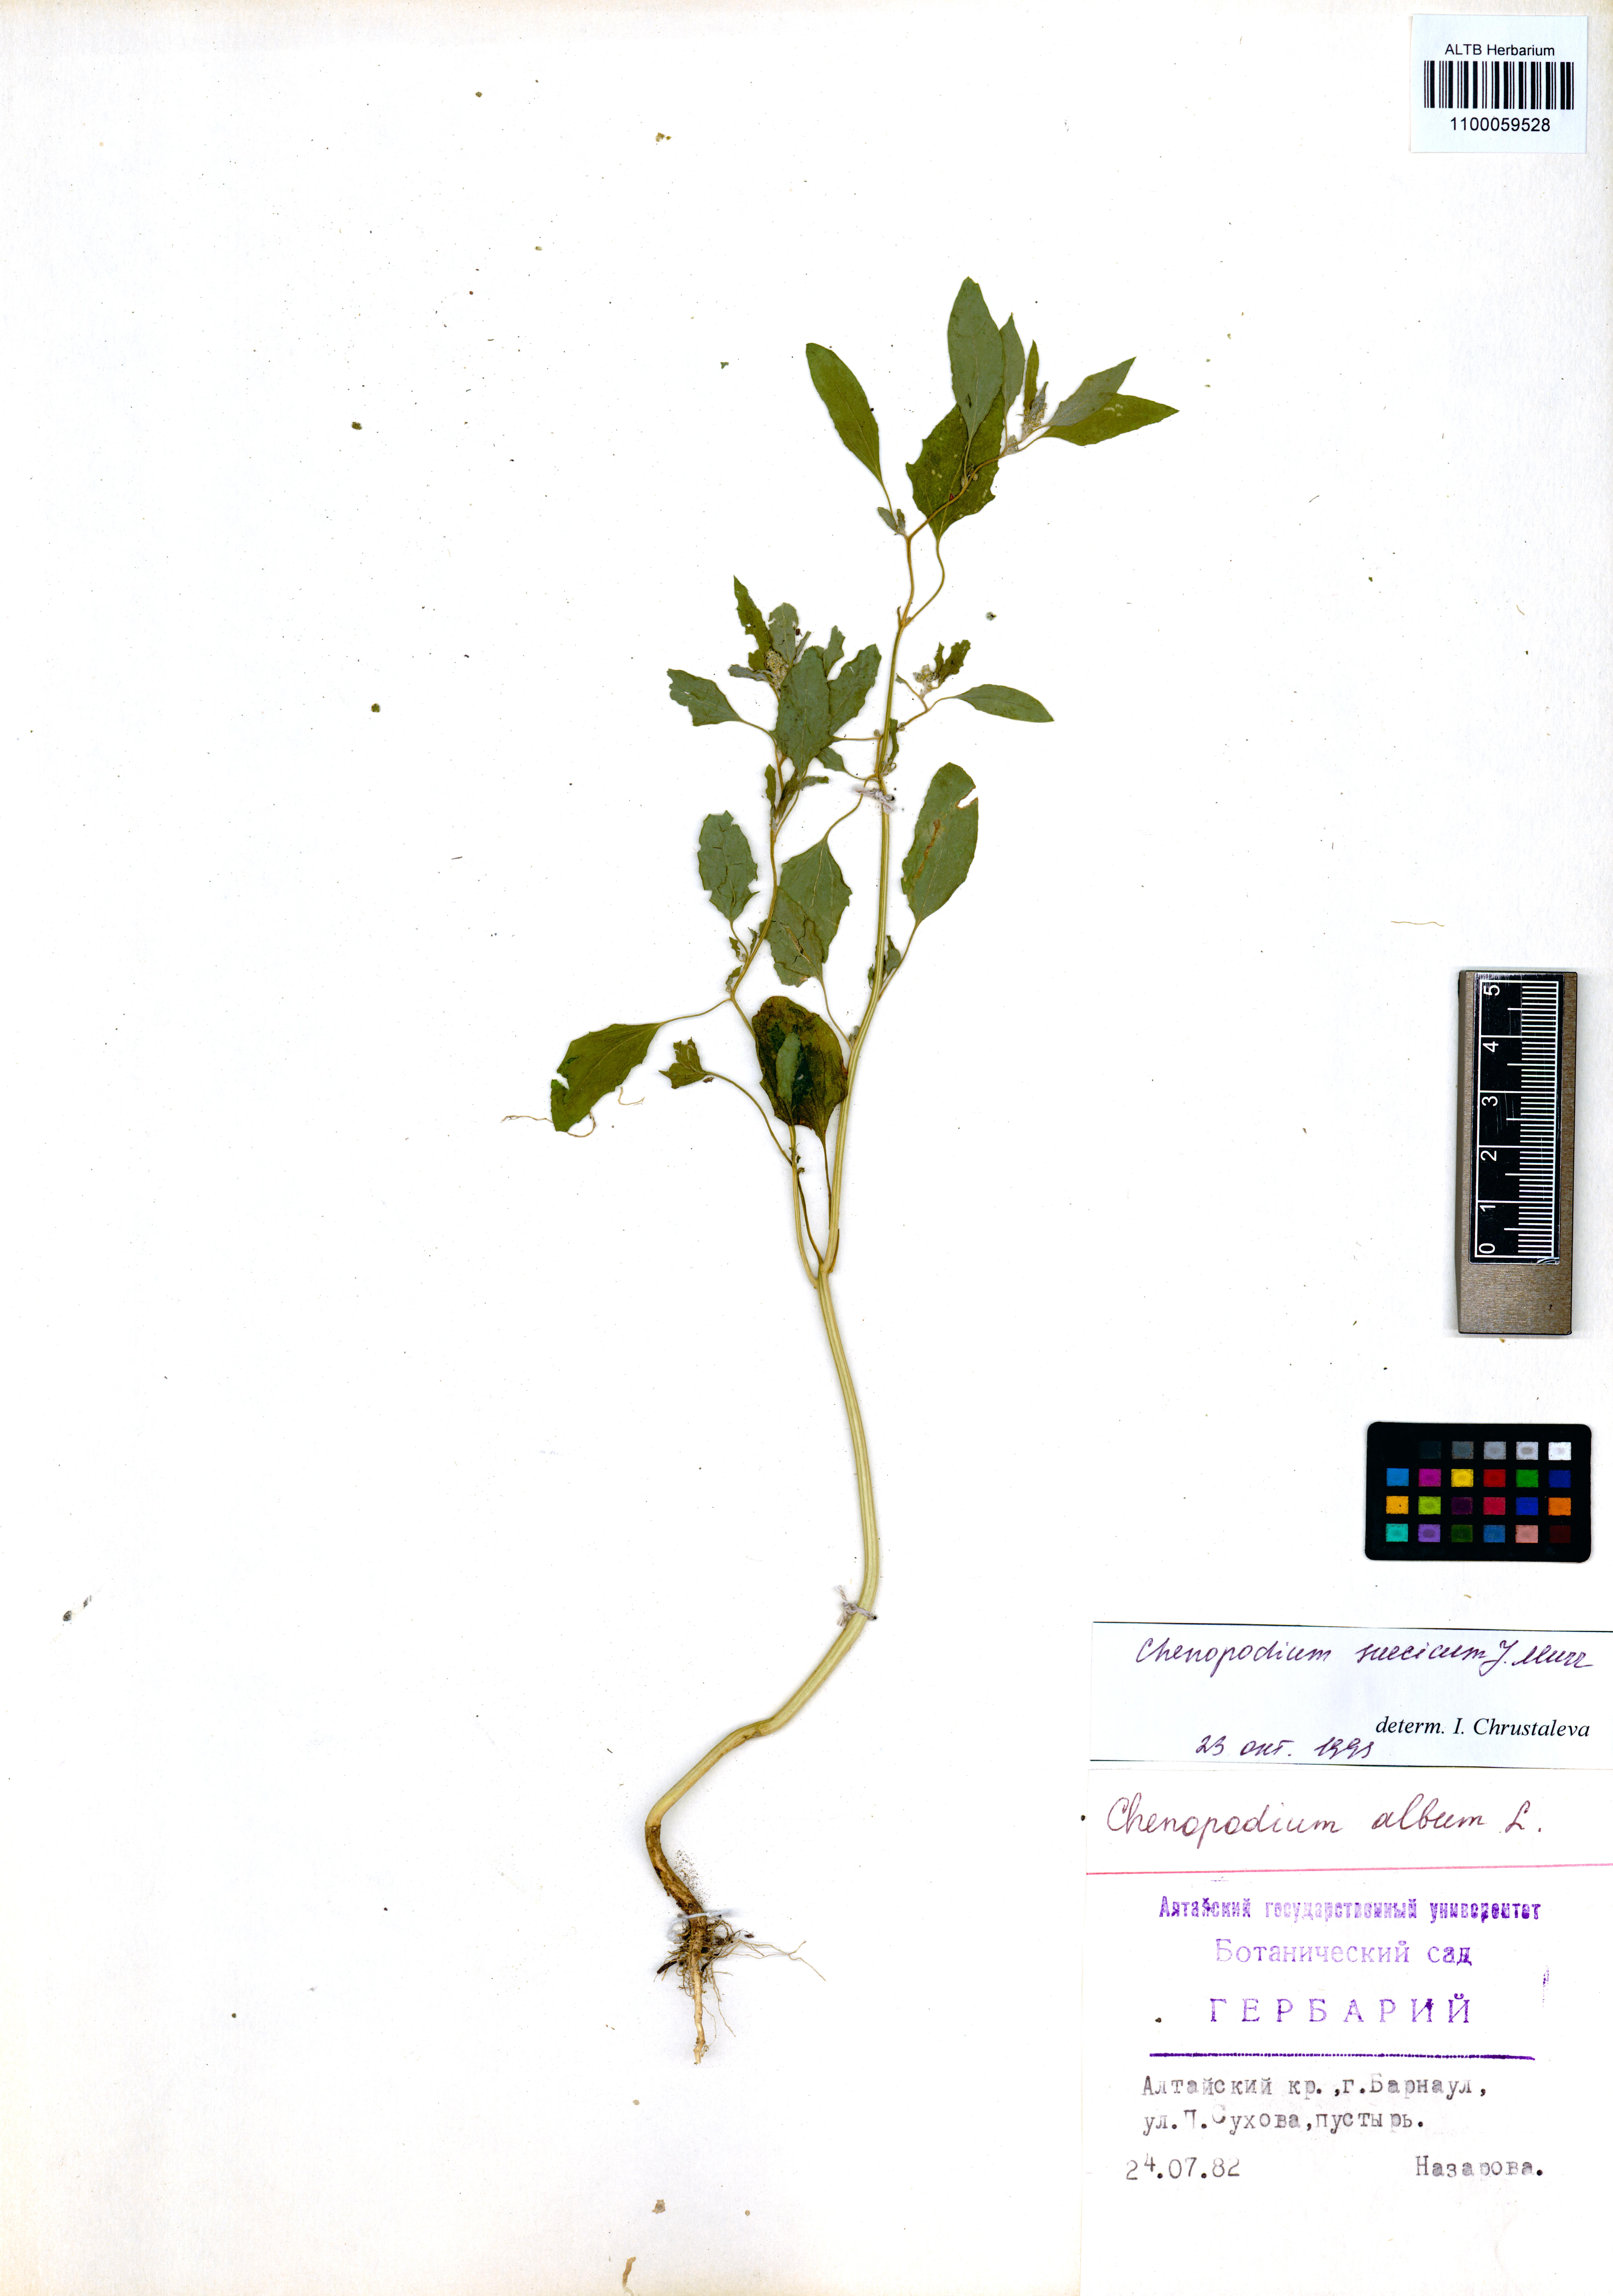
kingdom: Plantae
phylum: Tracheophyta
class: Magnoliopsida
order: Caryophyllales
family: Amaranthaceae
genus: Chenopodium
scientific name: Chenopodium suecicum
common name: Swedish goosefoot
